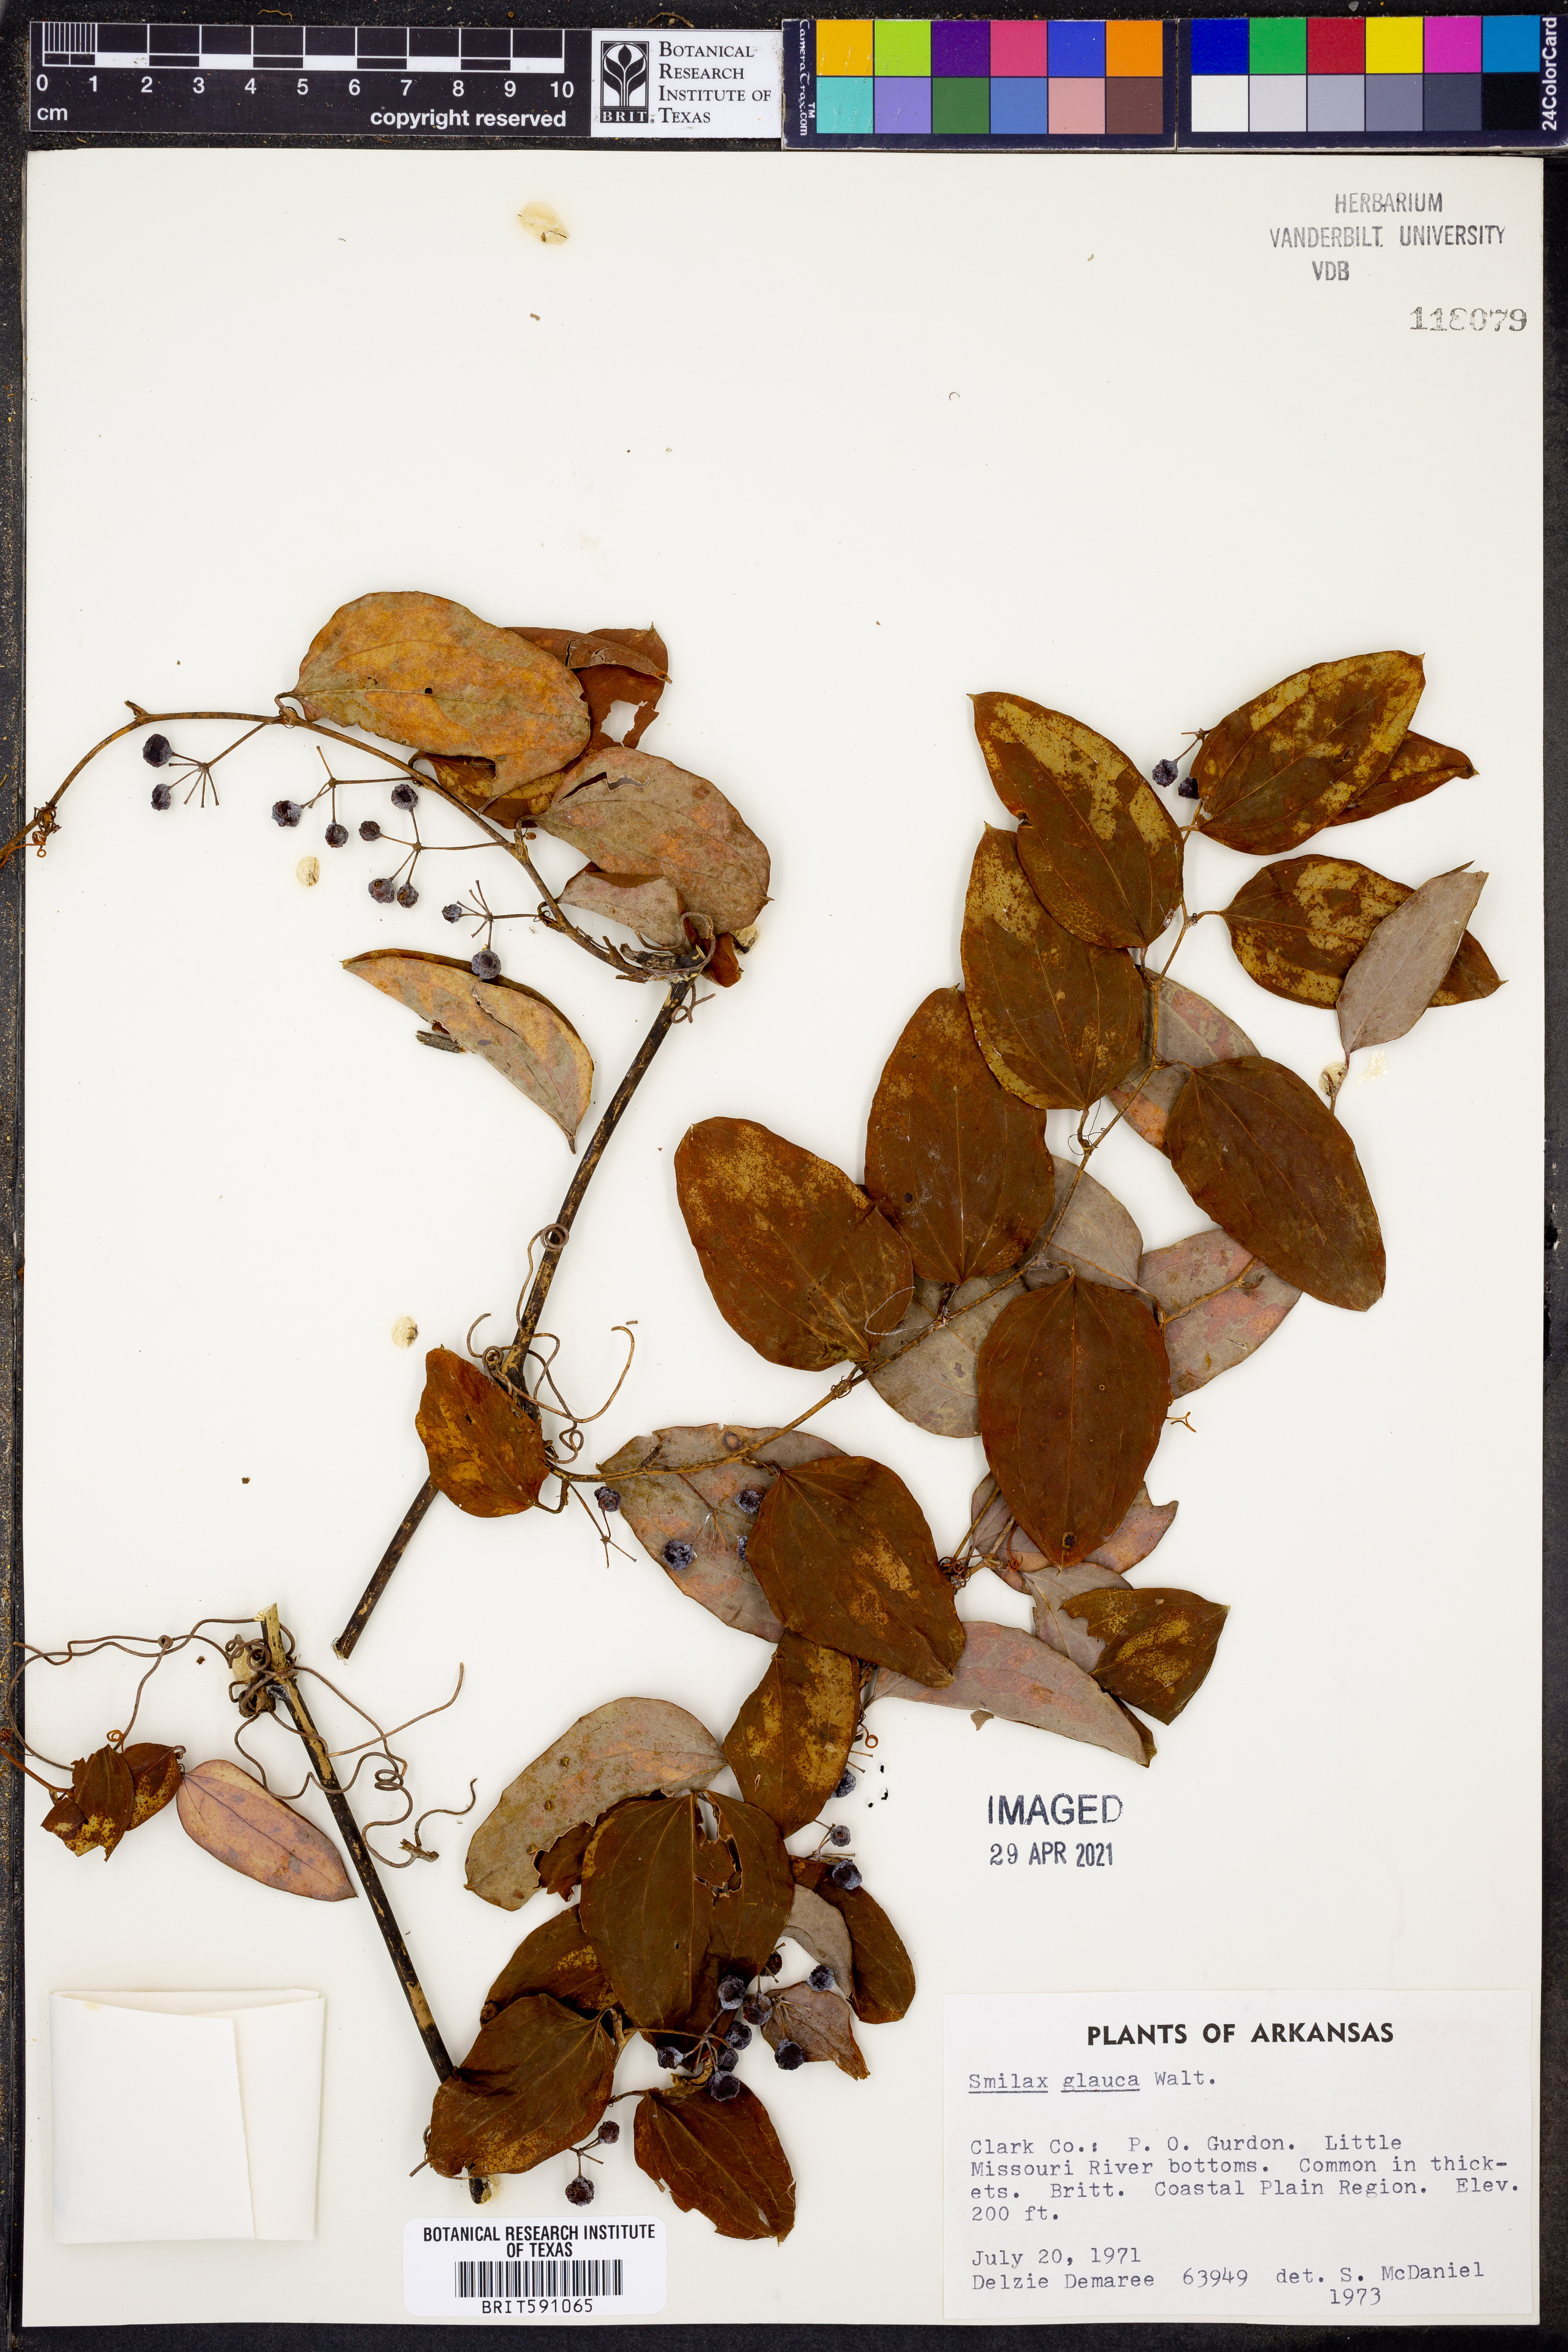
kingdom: Plantae
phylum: Tracheophyta
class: Liliopsida
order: Liliales
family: Smilacaceae
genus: Smilax
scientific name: Smilax glauca
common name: Cat greenbrier
